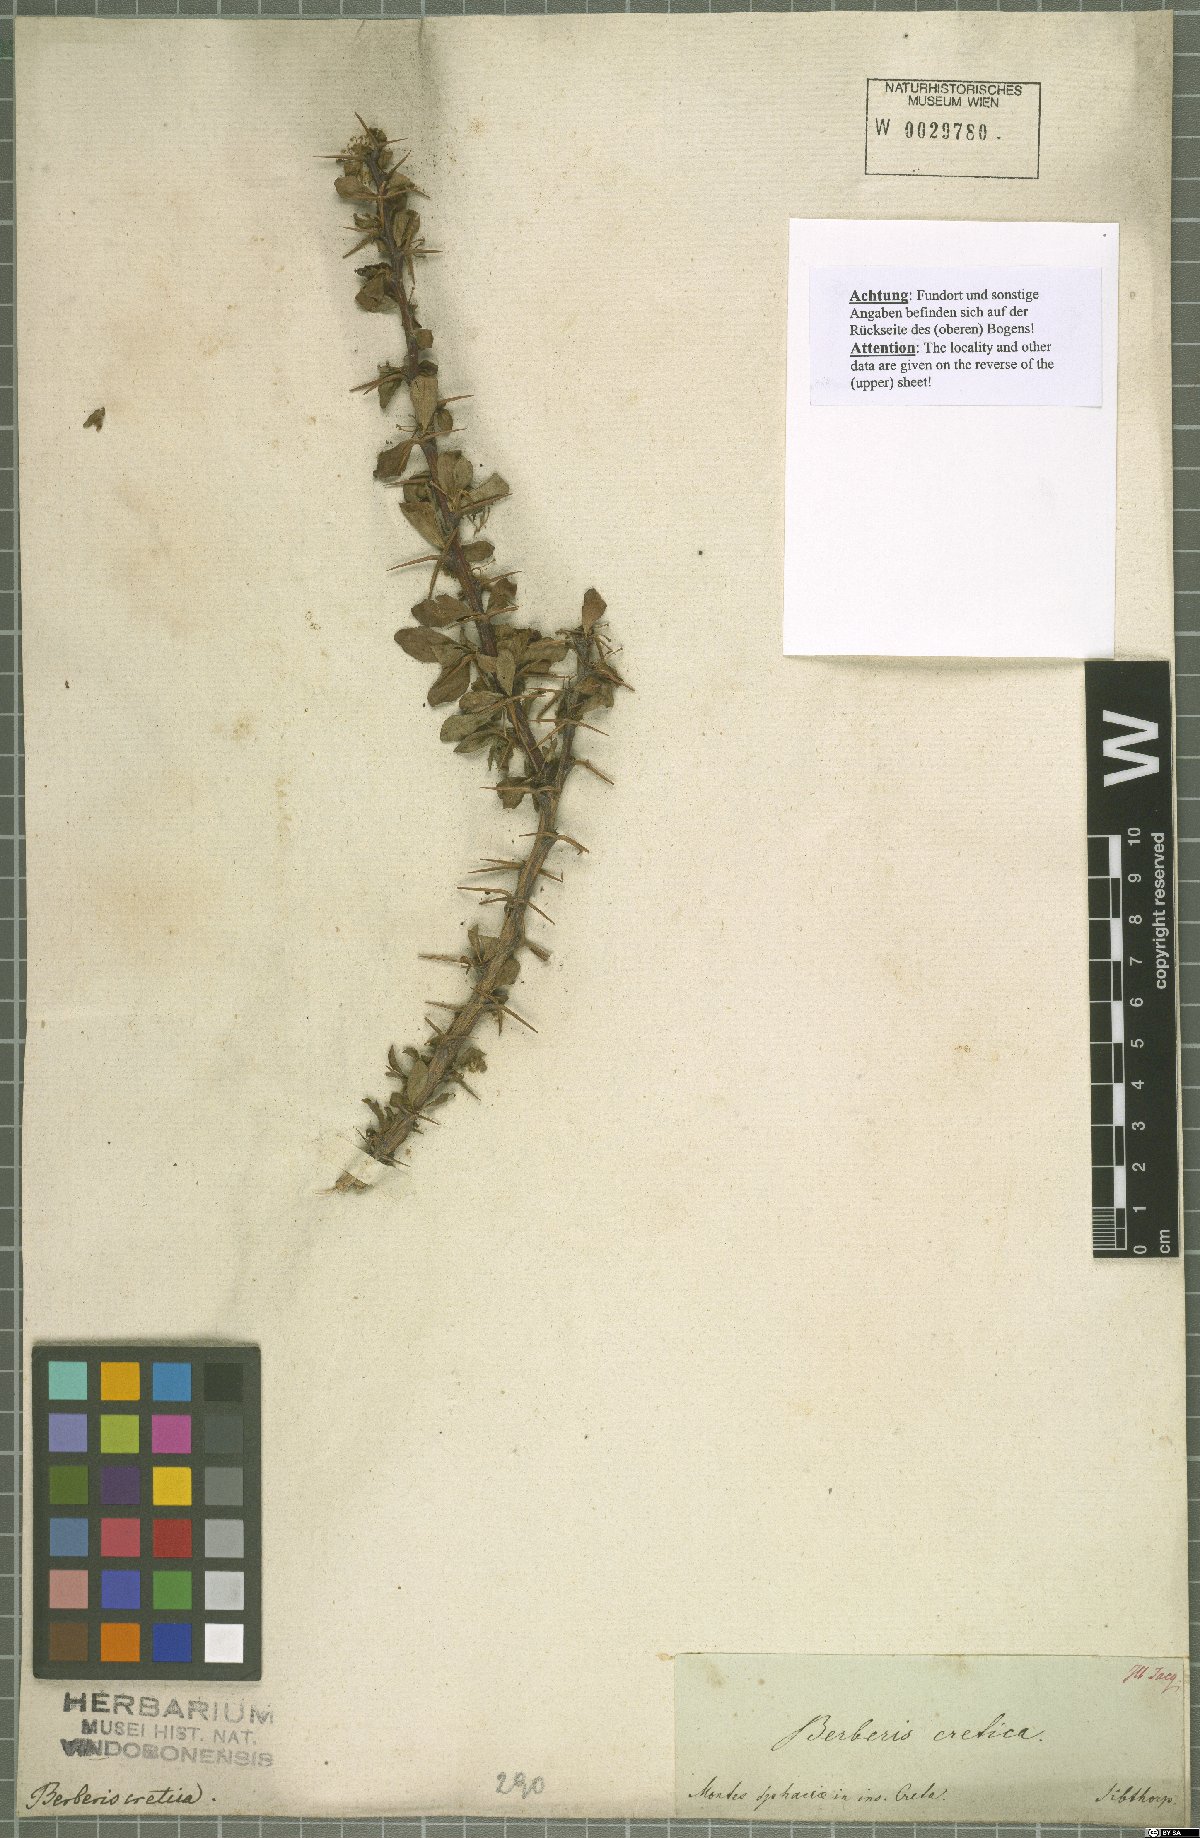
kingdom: Plantae
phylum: Tracheophyta
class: Magnoliopsida
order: Ranunculales
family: Berberidaceae
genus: Berberis
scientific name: Berberis cretica
